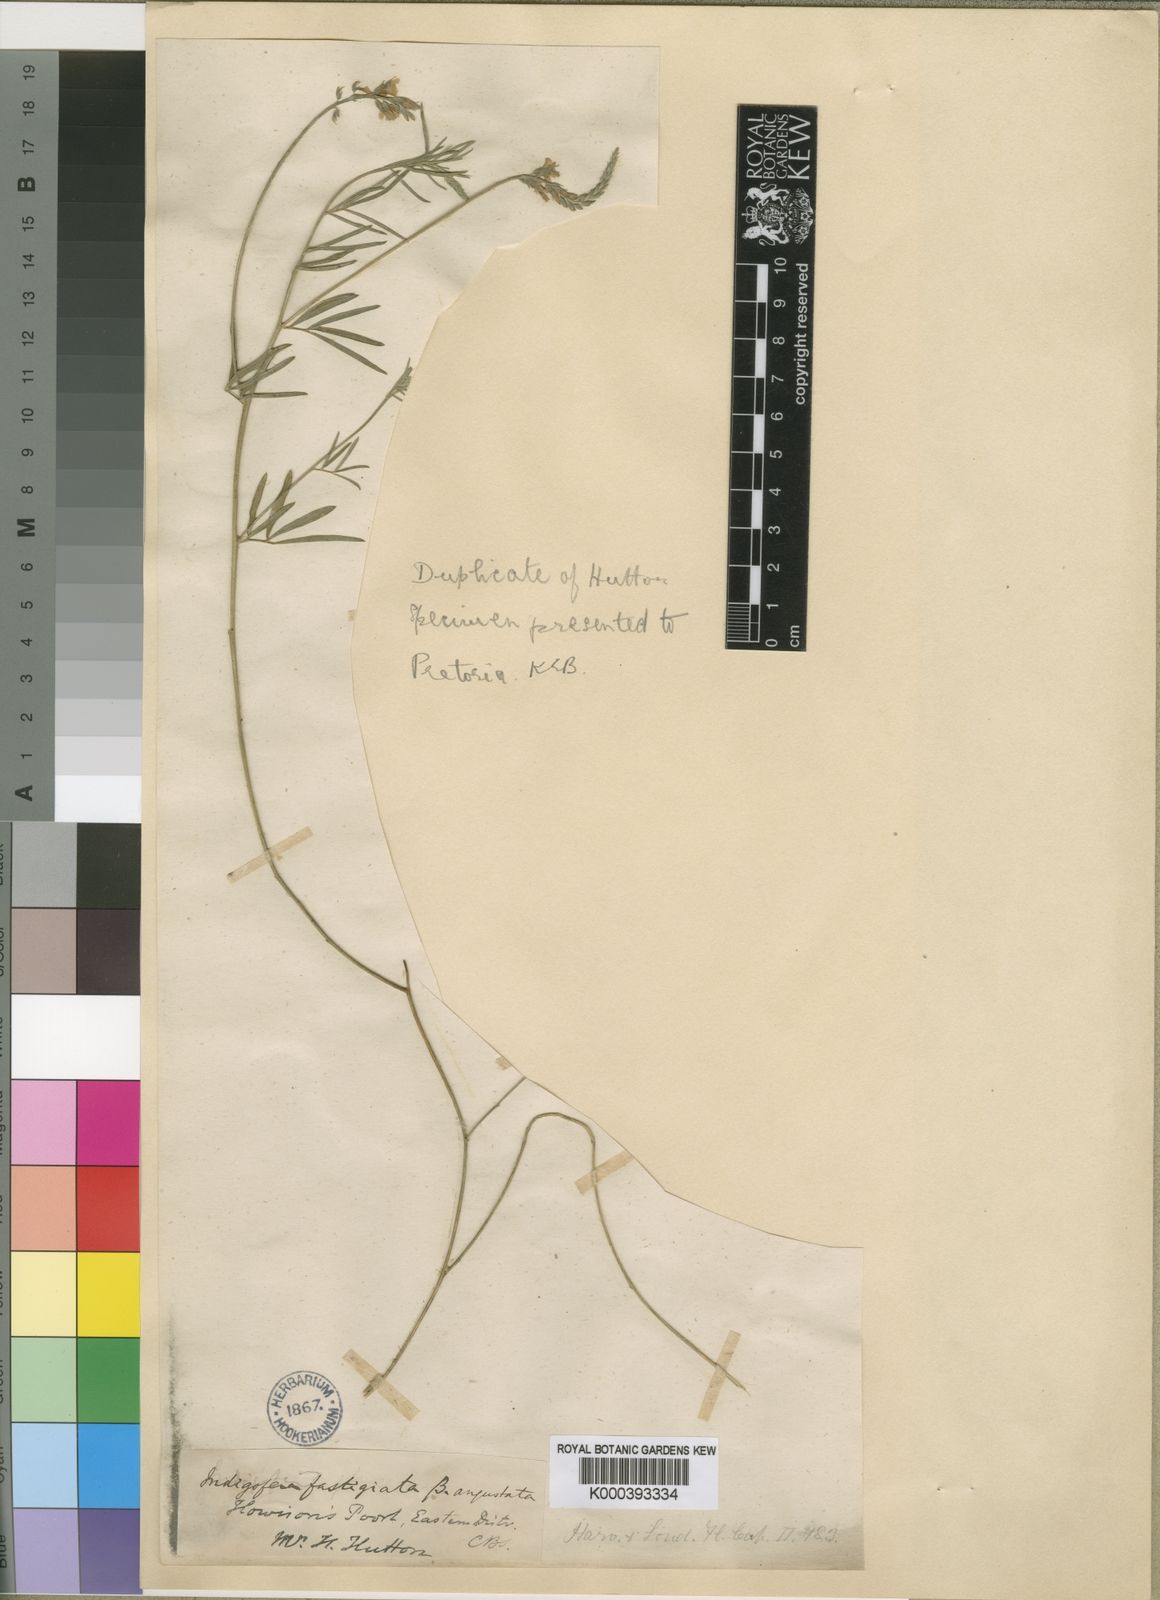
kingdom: Plantae
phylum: Tracheophyta
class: Magnoliopsida
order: Fabales
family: Fabaceae
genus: Indigastrum
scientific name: Indigastrum fastigiatum
